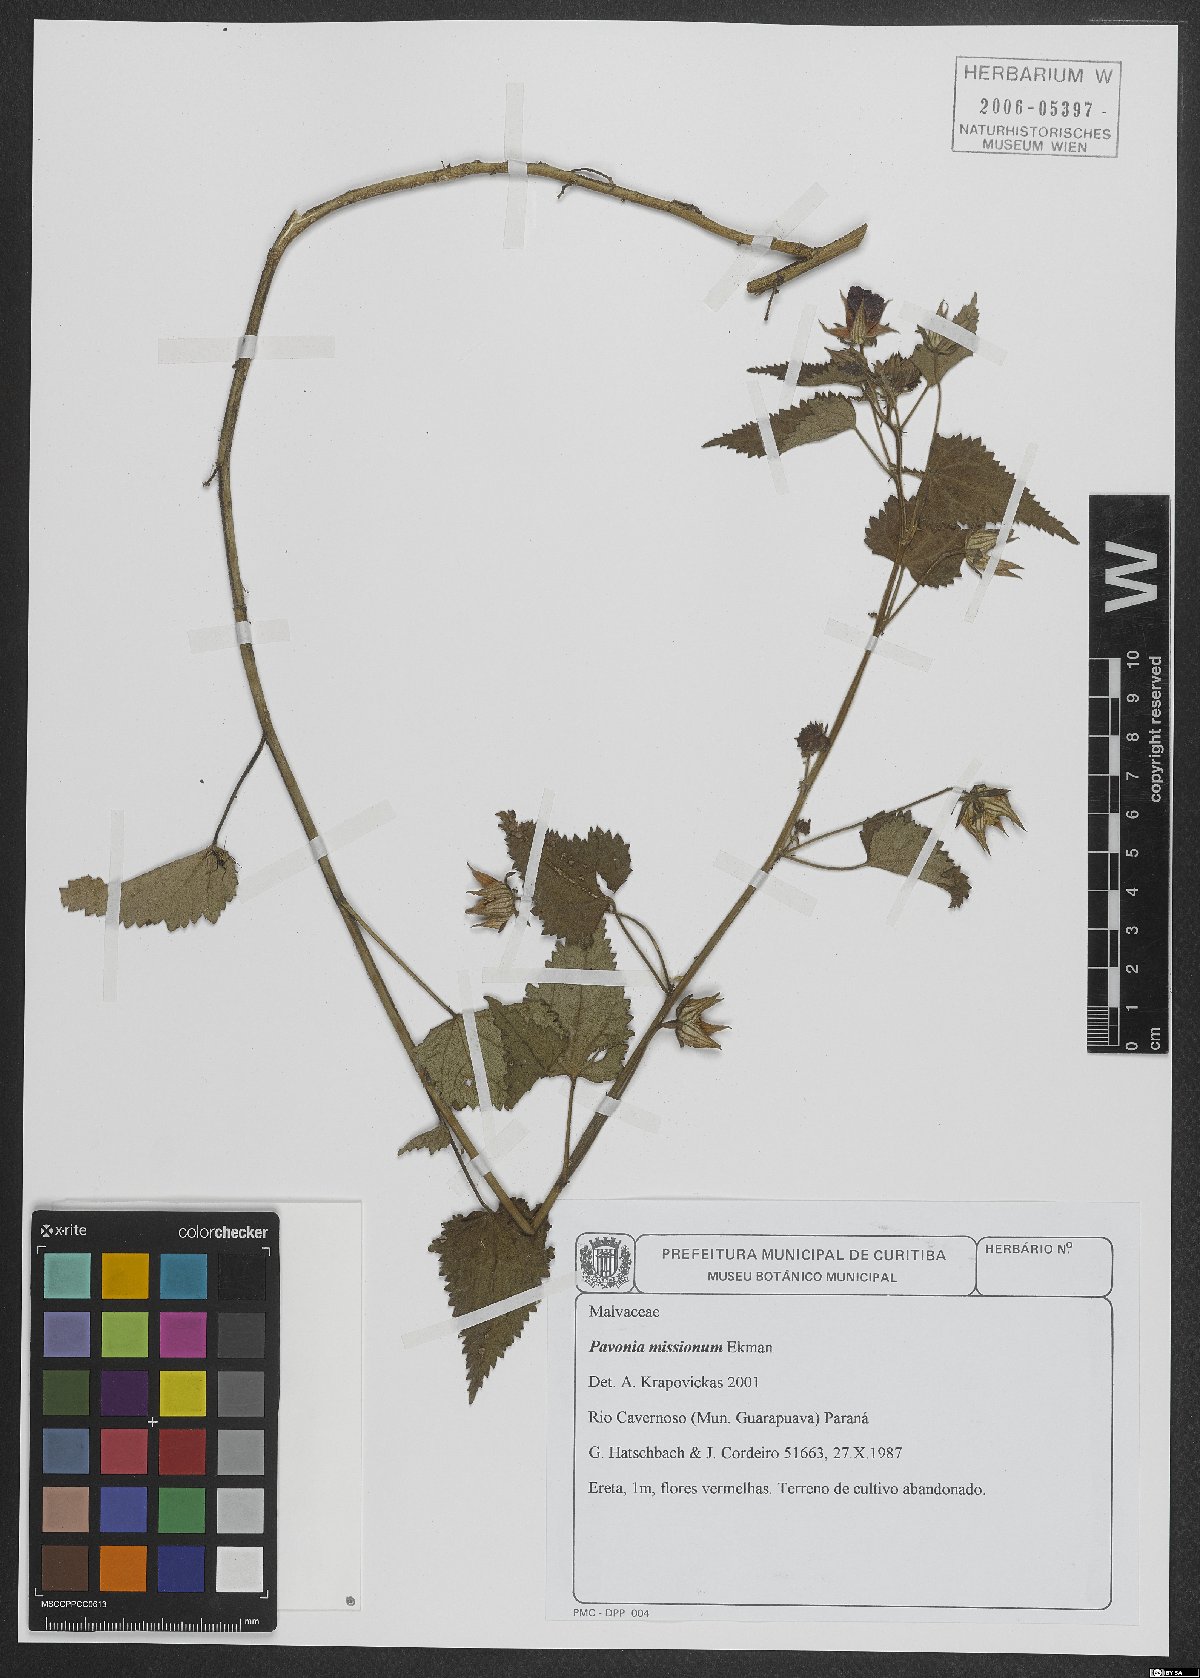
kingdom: Plantae
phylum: Tracheophyta
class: Magnoliopsida
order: Malvales
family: Malvaceae
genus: Pavonia
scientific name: Pavonia missionum
